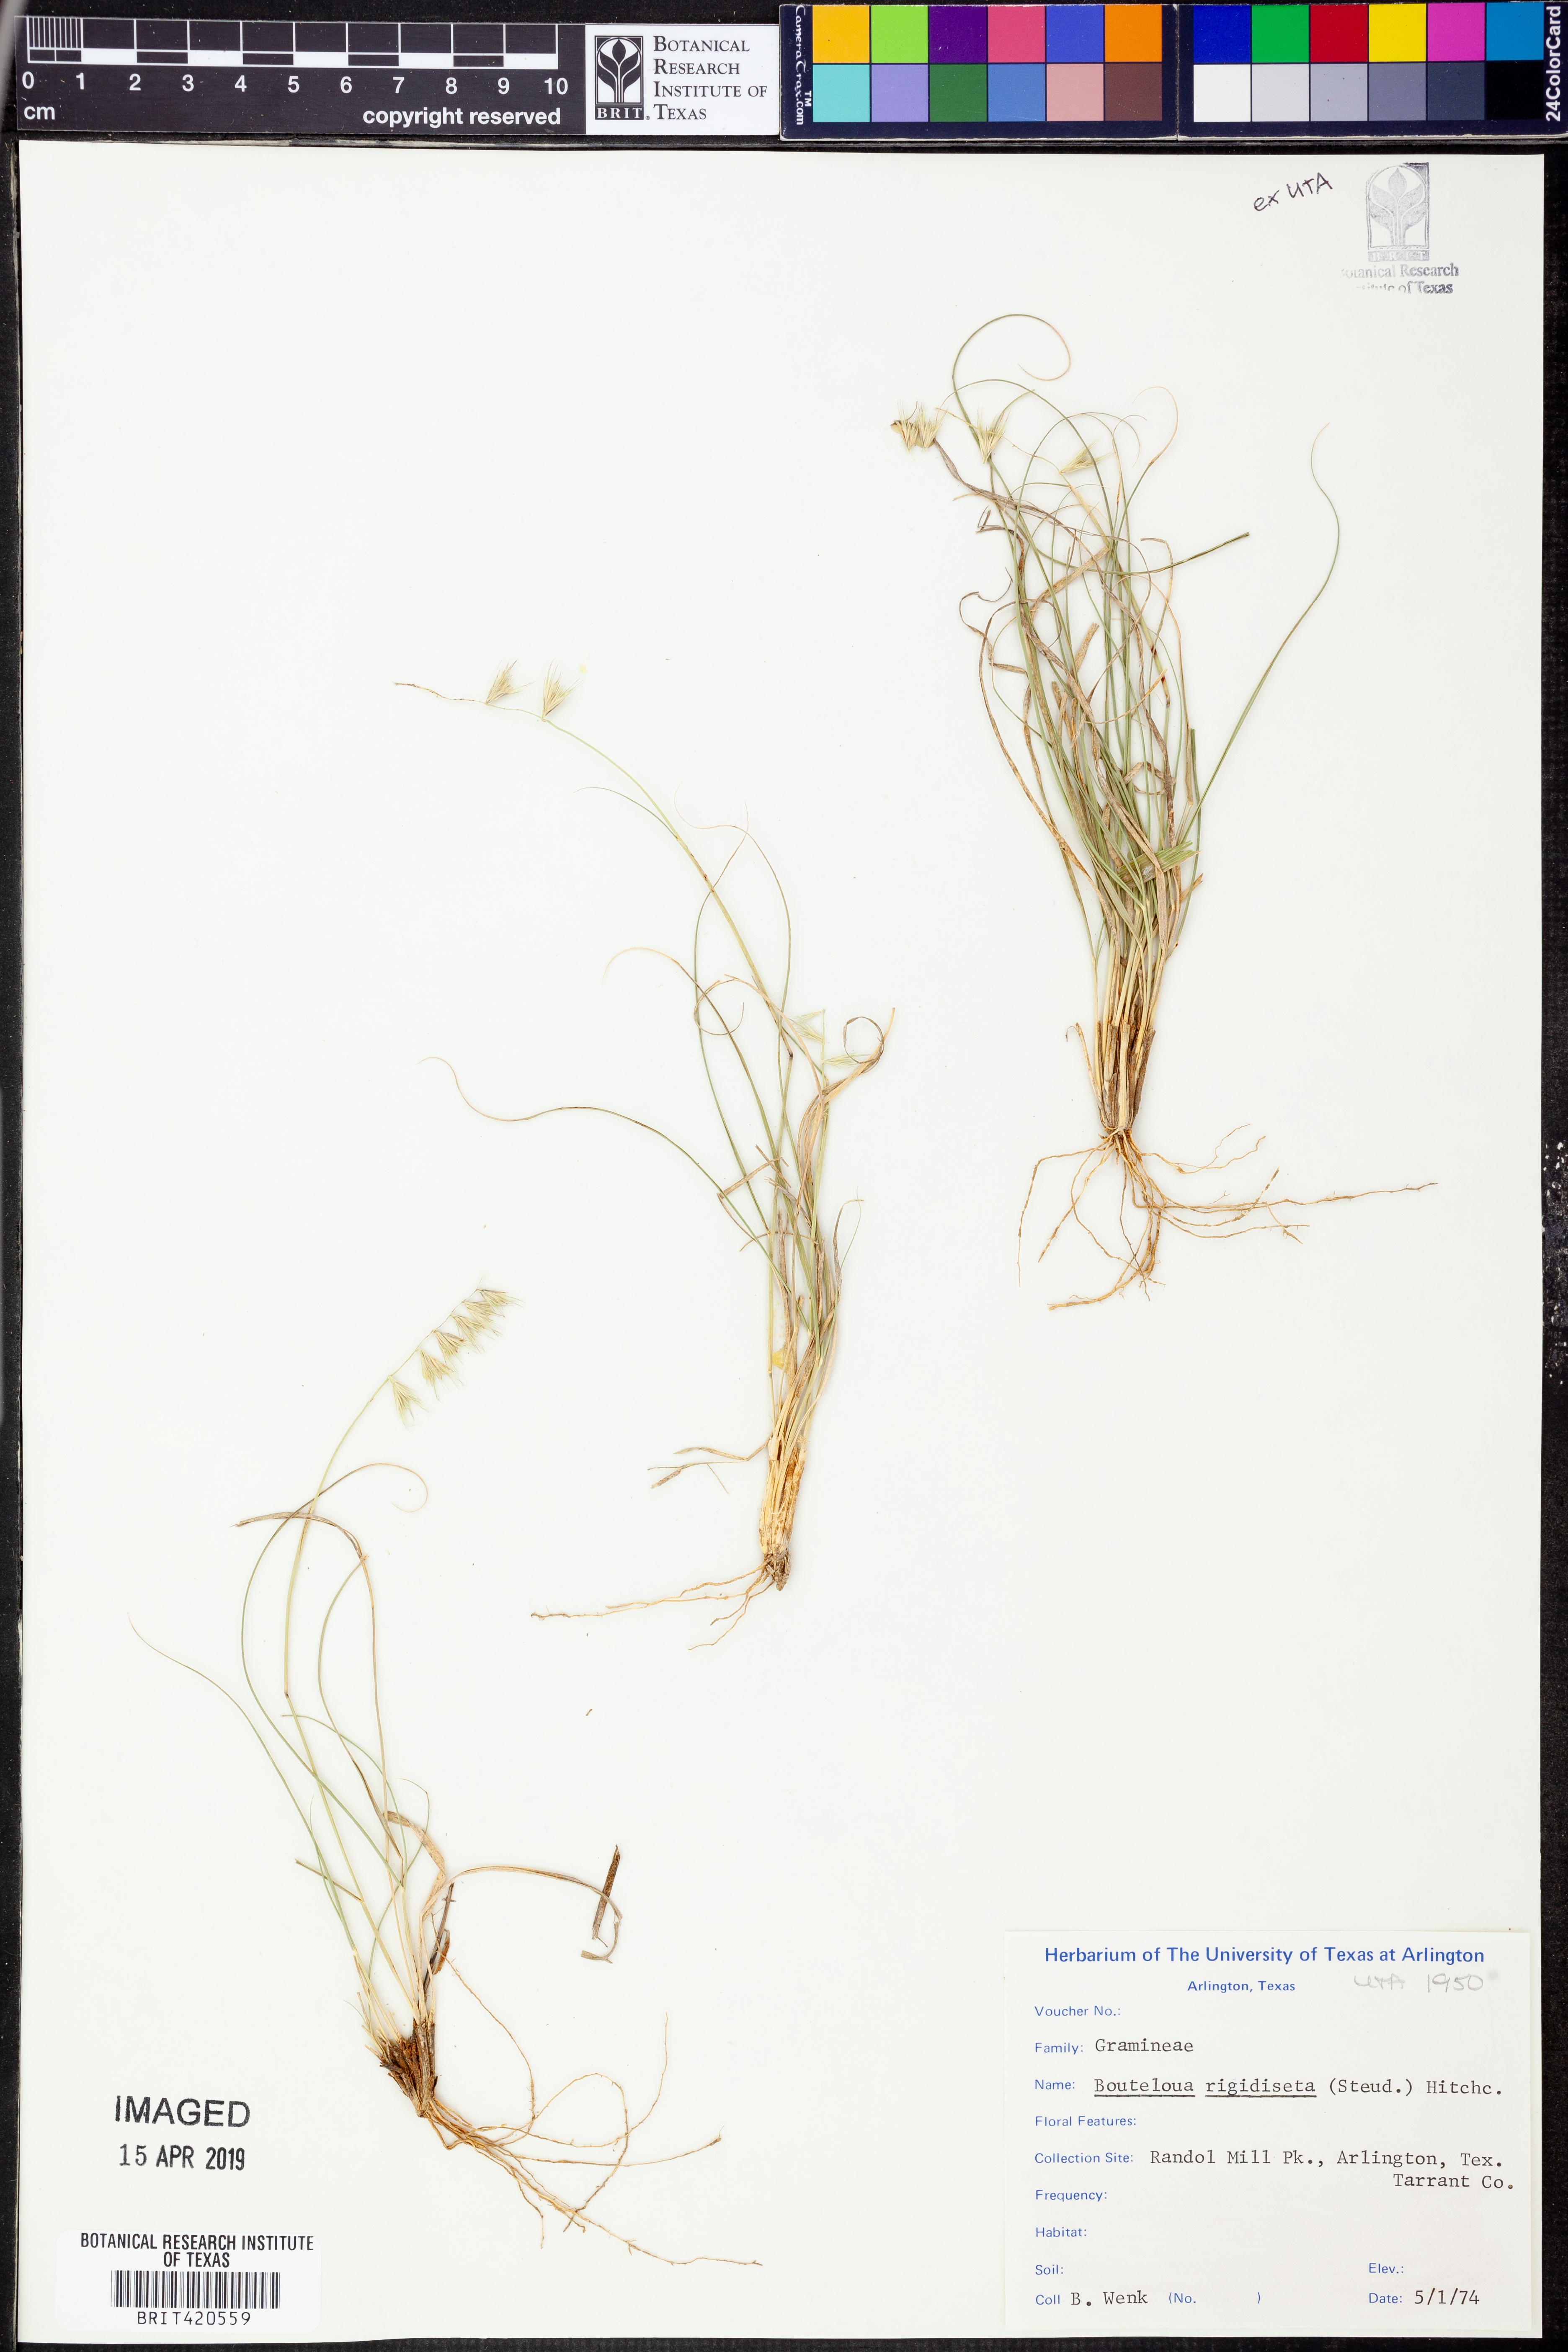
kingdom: Plantae
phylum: Tracheophyta
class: Liliopsida
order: Poales
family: Poaceae
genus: Bouteloua
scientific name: Bouteloua rigidiseta
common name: Texas grama
